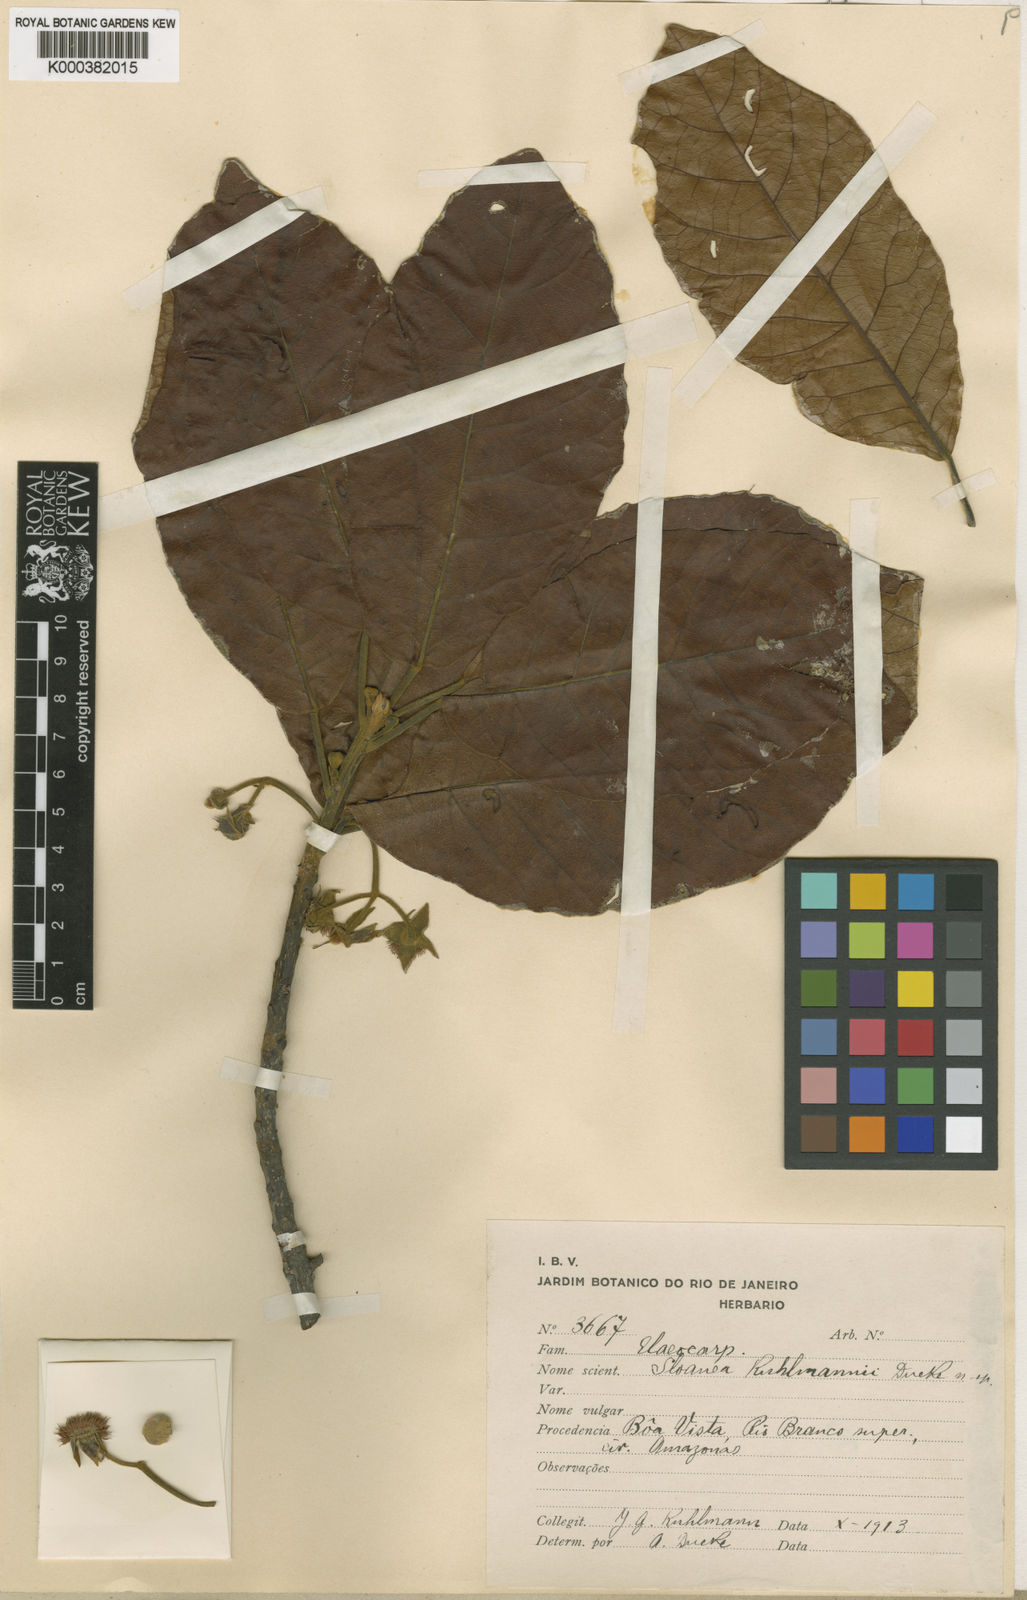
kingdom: Plantae
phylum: Tracheophyta
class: Magnoliopsida
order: Oxalidales
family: Elaeocarpaceae
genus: Sloanea
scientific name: Sloanea kuhlmannii
